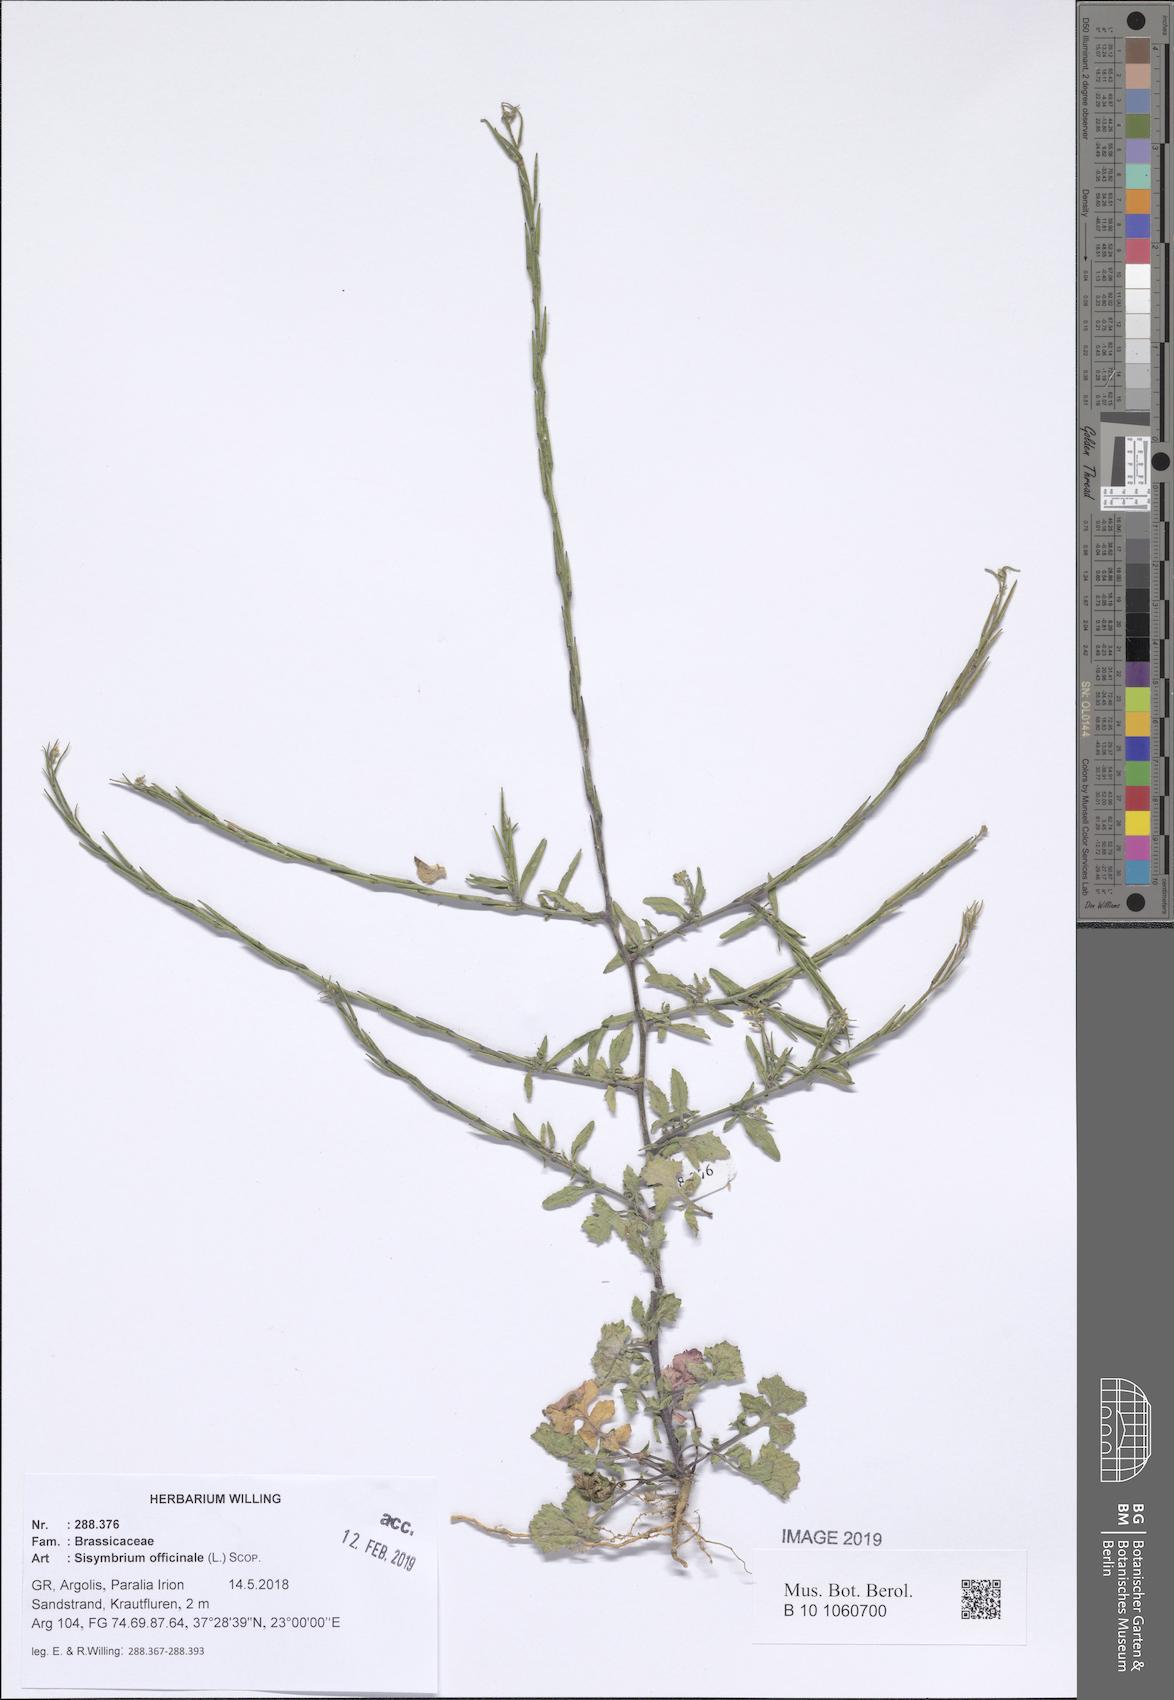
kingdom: Plantae
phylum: Tracheophyta
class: Magnoliopsida
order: Brassicales
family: Brassicaceae
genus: Sisymbrium
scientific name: Sisymbrium officinale
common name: Hedge mustard
